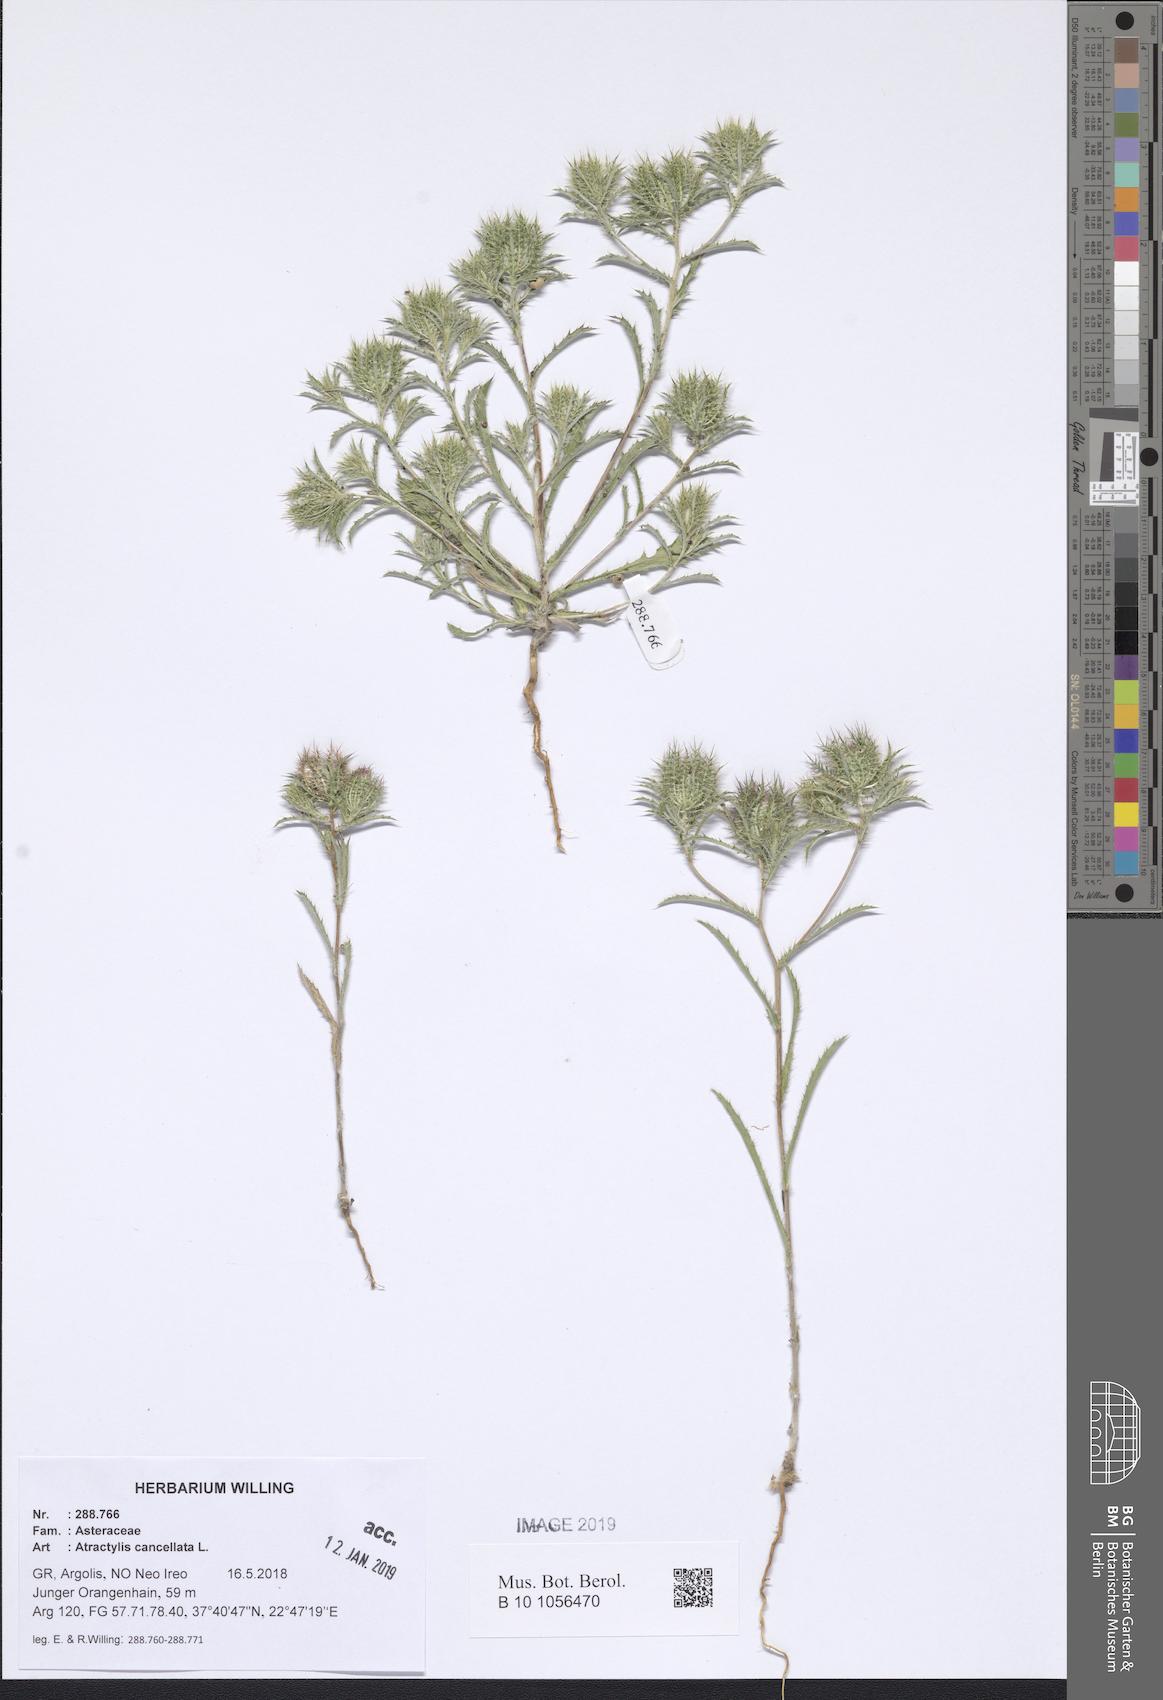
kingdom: Plantae
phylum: Tracheophyta
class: Magnoliopsida
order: Asterales
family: Asteraceae
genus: Atractylis
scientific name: Atractylis cancellata
